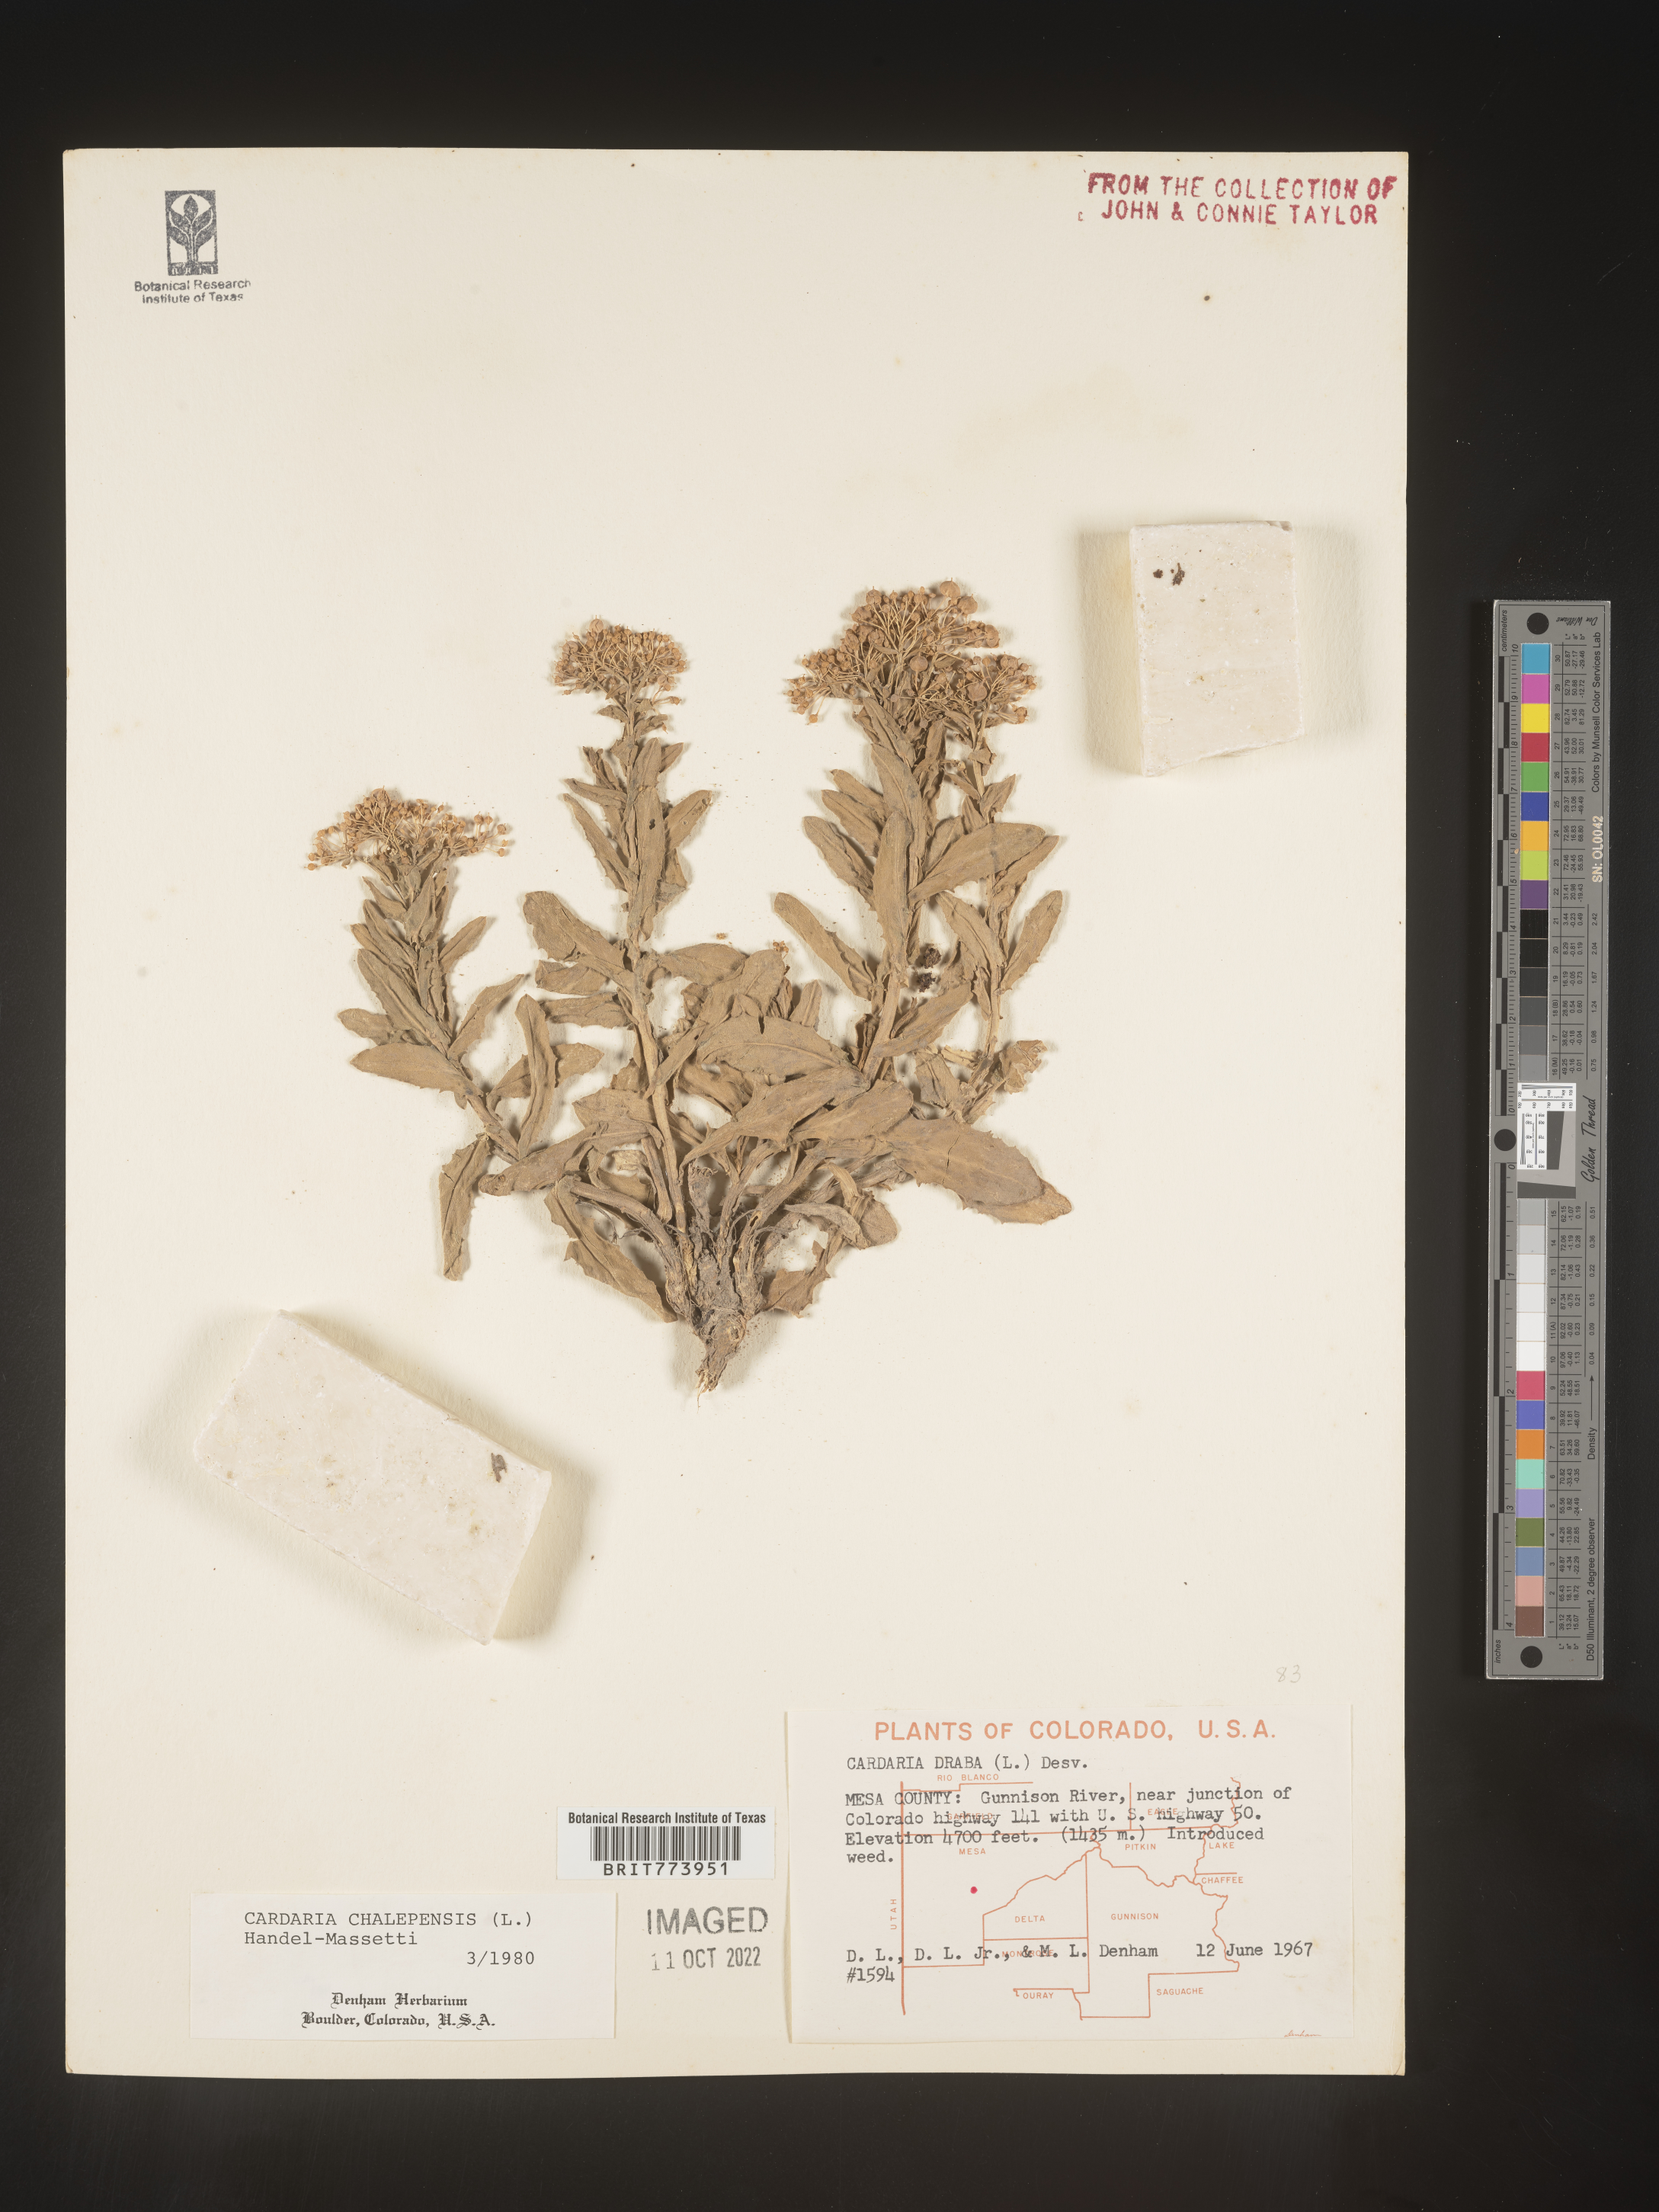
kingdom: Plantae
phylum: Tracheophyta
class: Magnoliopsida
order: Brassicales
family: Brassicaceae
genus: Lepidium
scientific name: Lepidium draba
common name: Hoary cress
